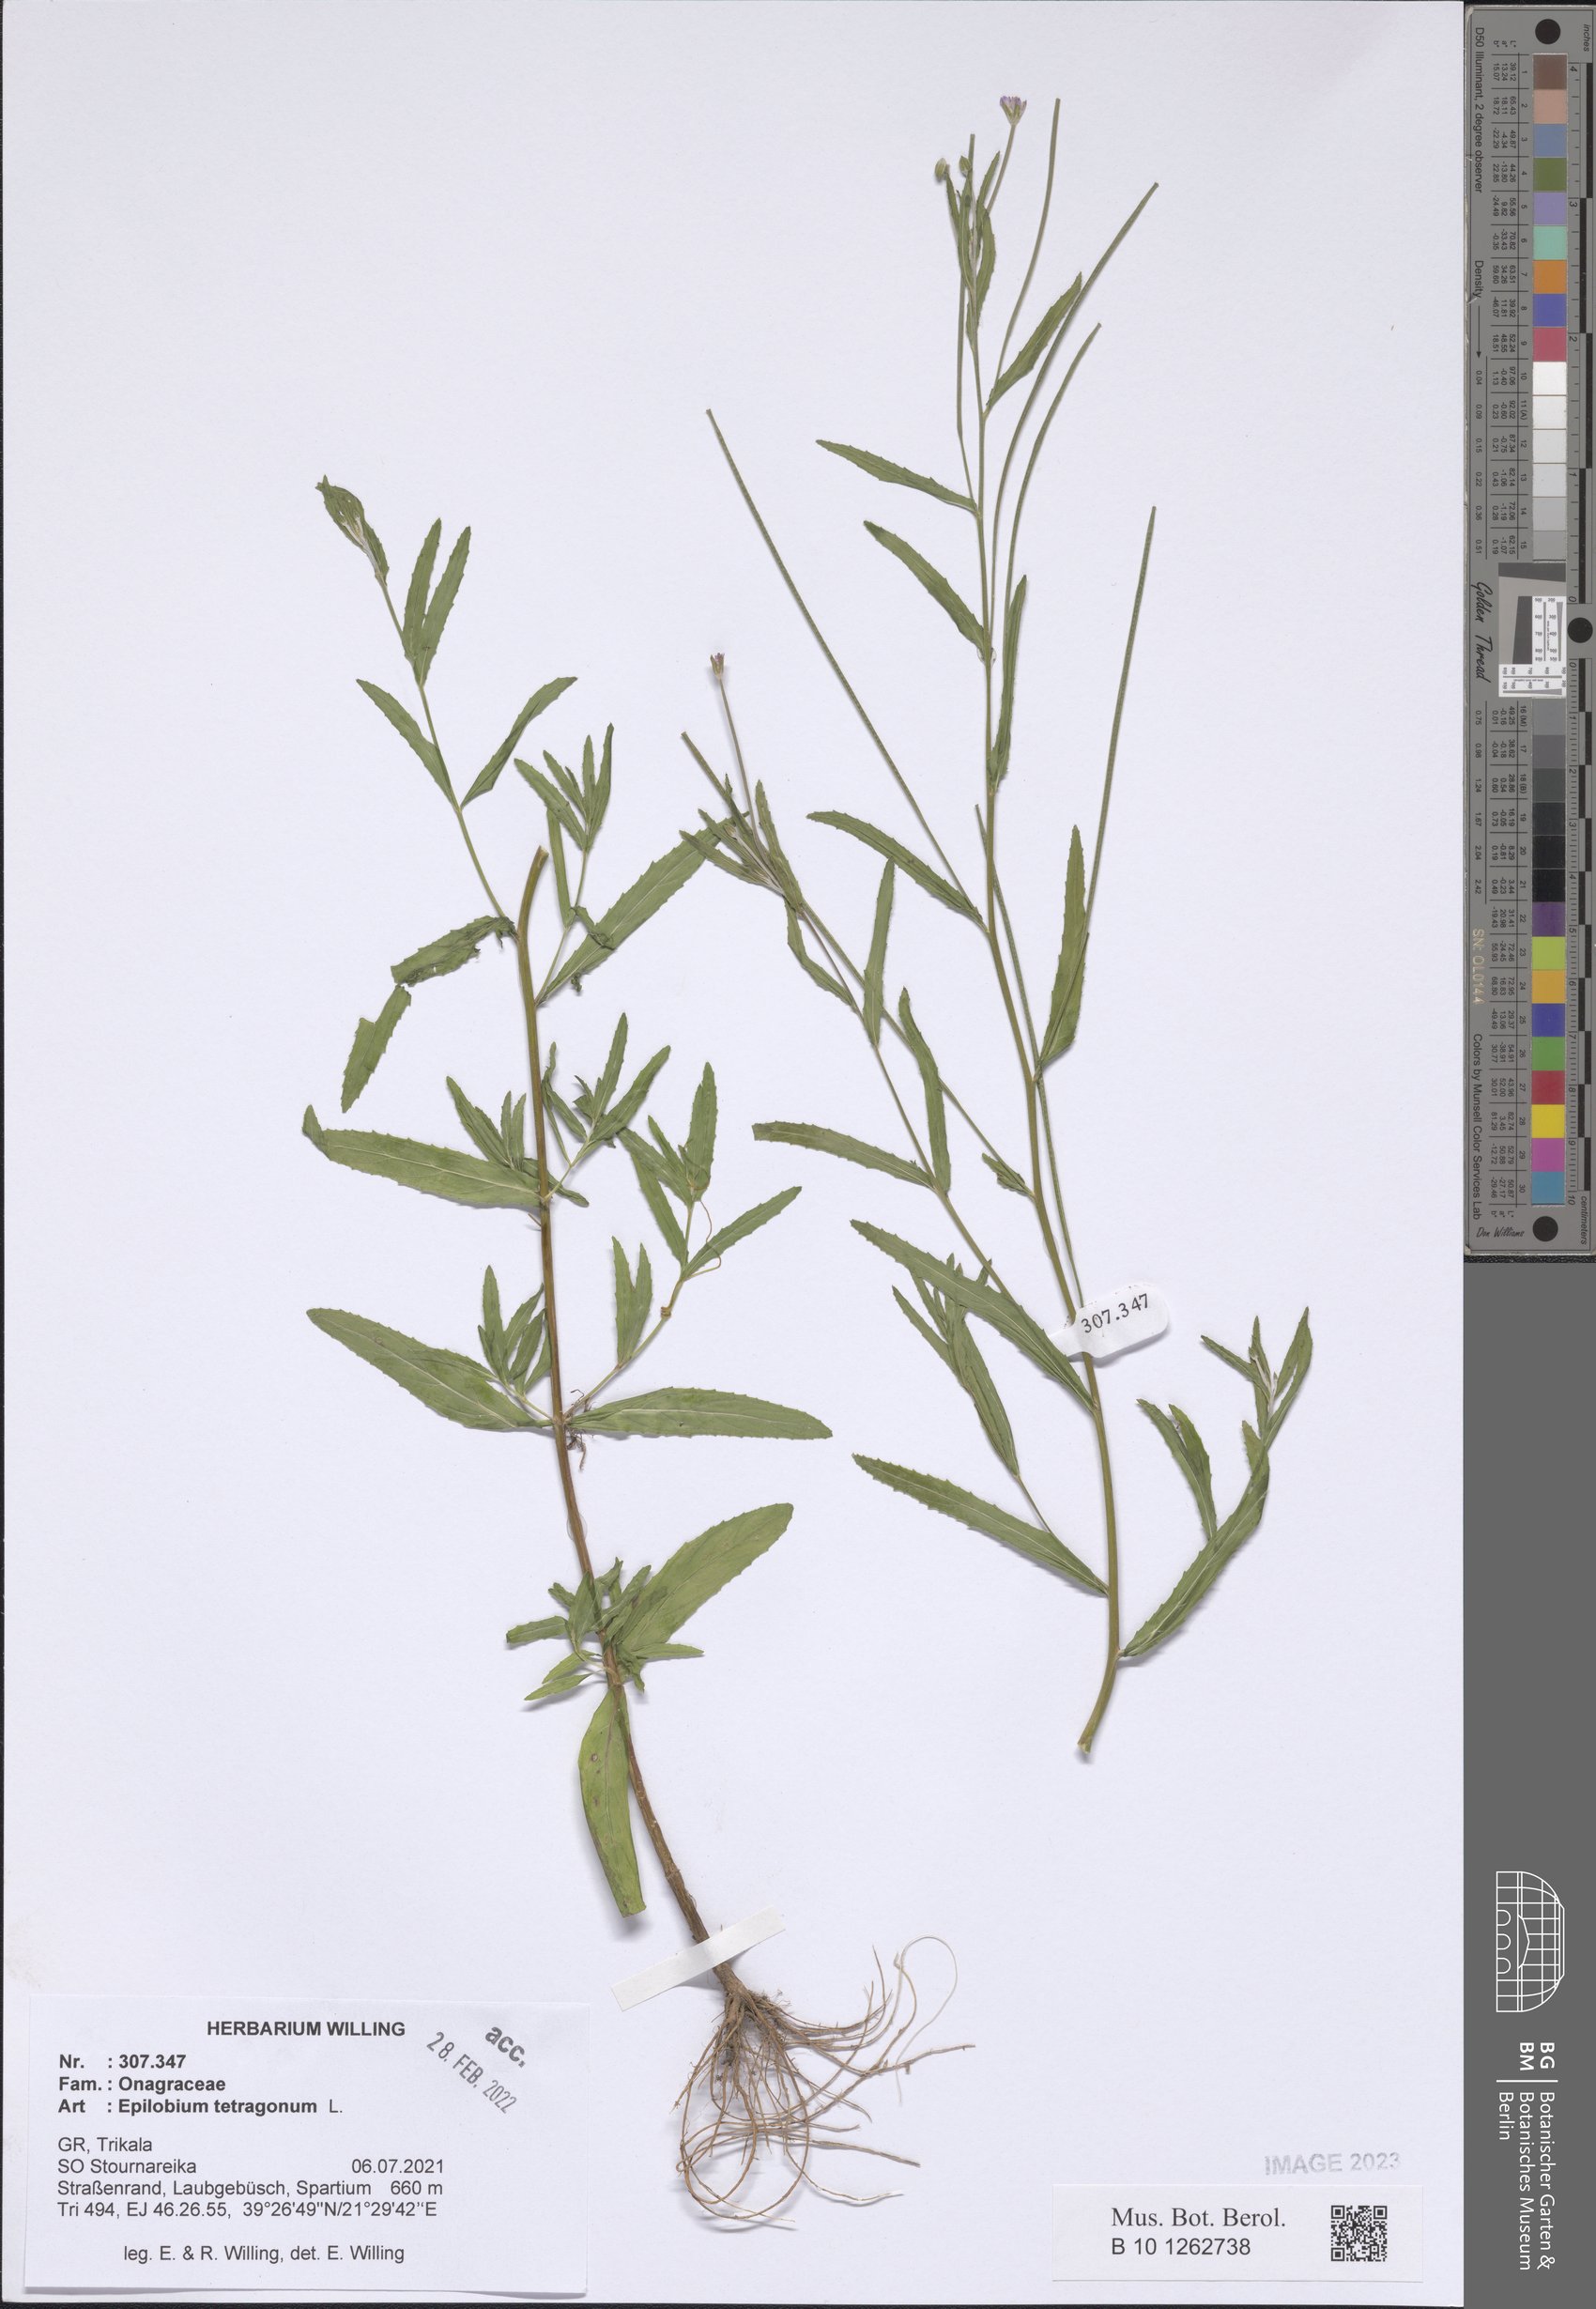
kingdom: Plantae
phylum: Tracheophyta
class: Magnoliopsida
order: Myrtales
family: Onagraceae
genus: Epilobium
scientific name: Epilobium tetragonum
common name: Square-stemmed willowherb
